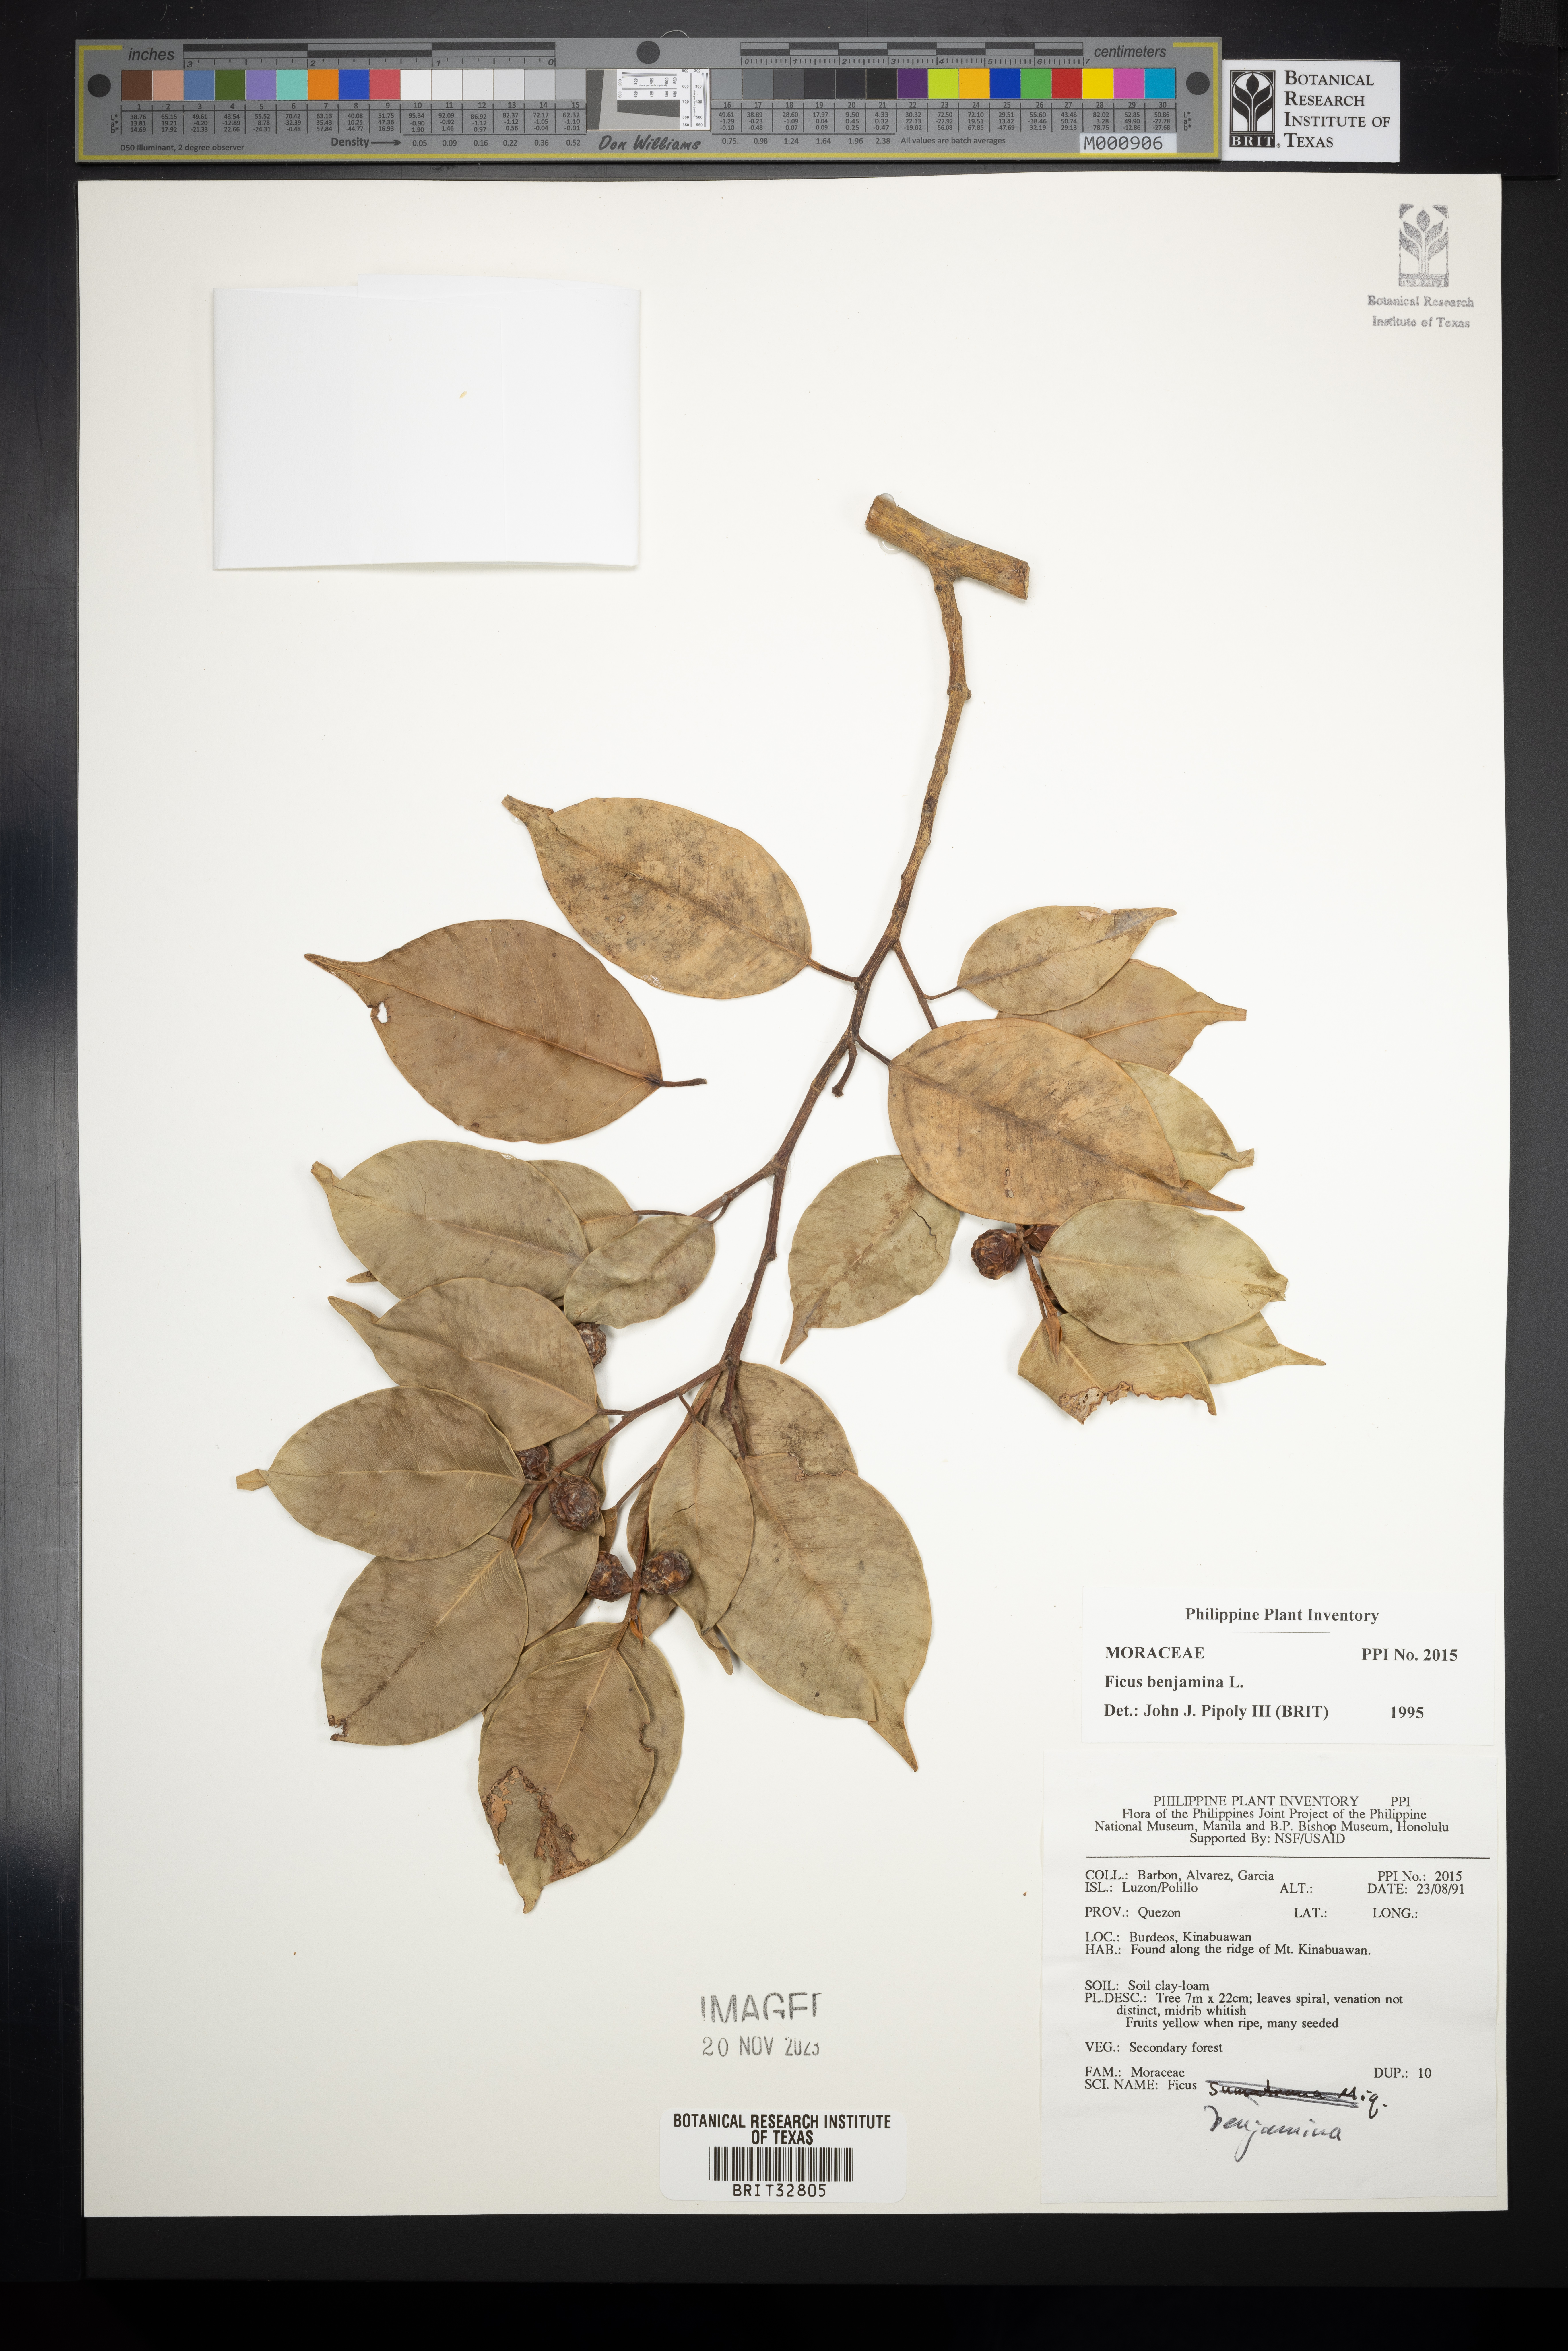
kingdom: Plantae
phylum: Tracheophyta
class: Magnoliopsida
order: Rosales
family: Moraceae
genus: Ficus
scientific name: Ficus benjamina
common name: Weeping fig
